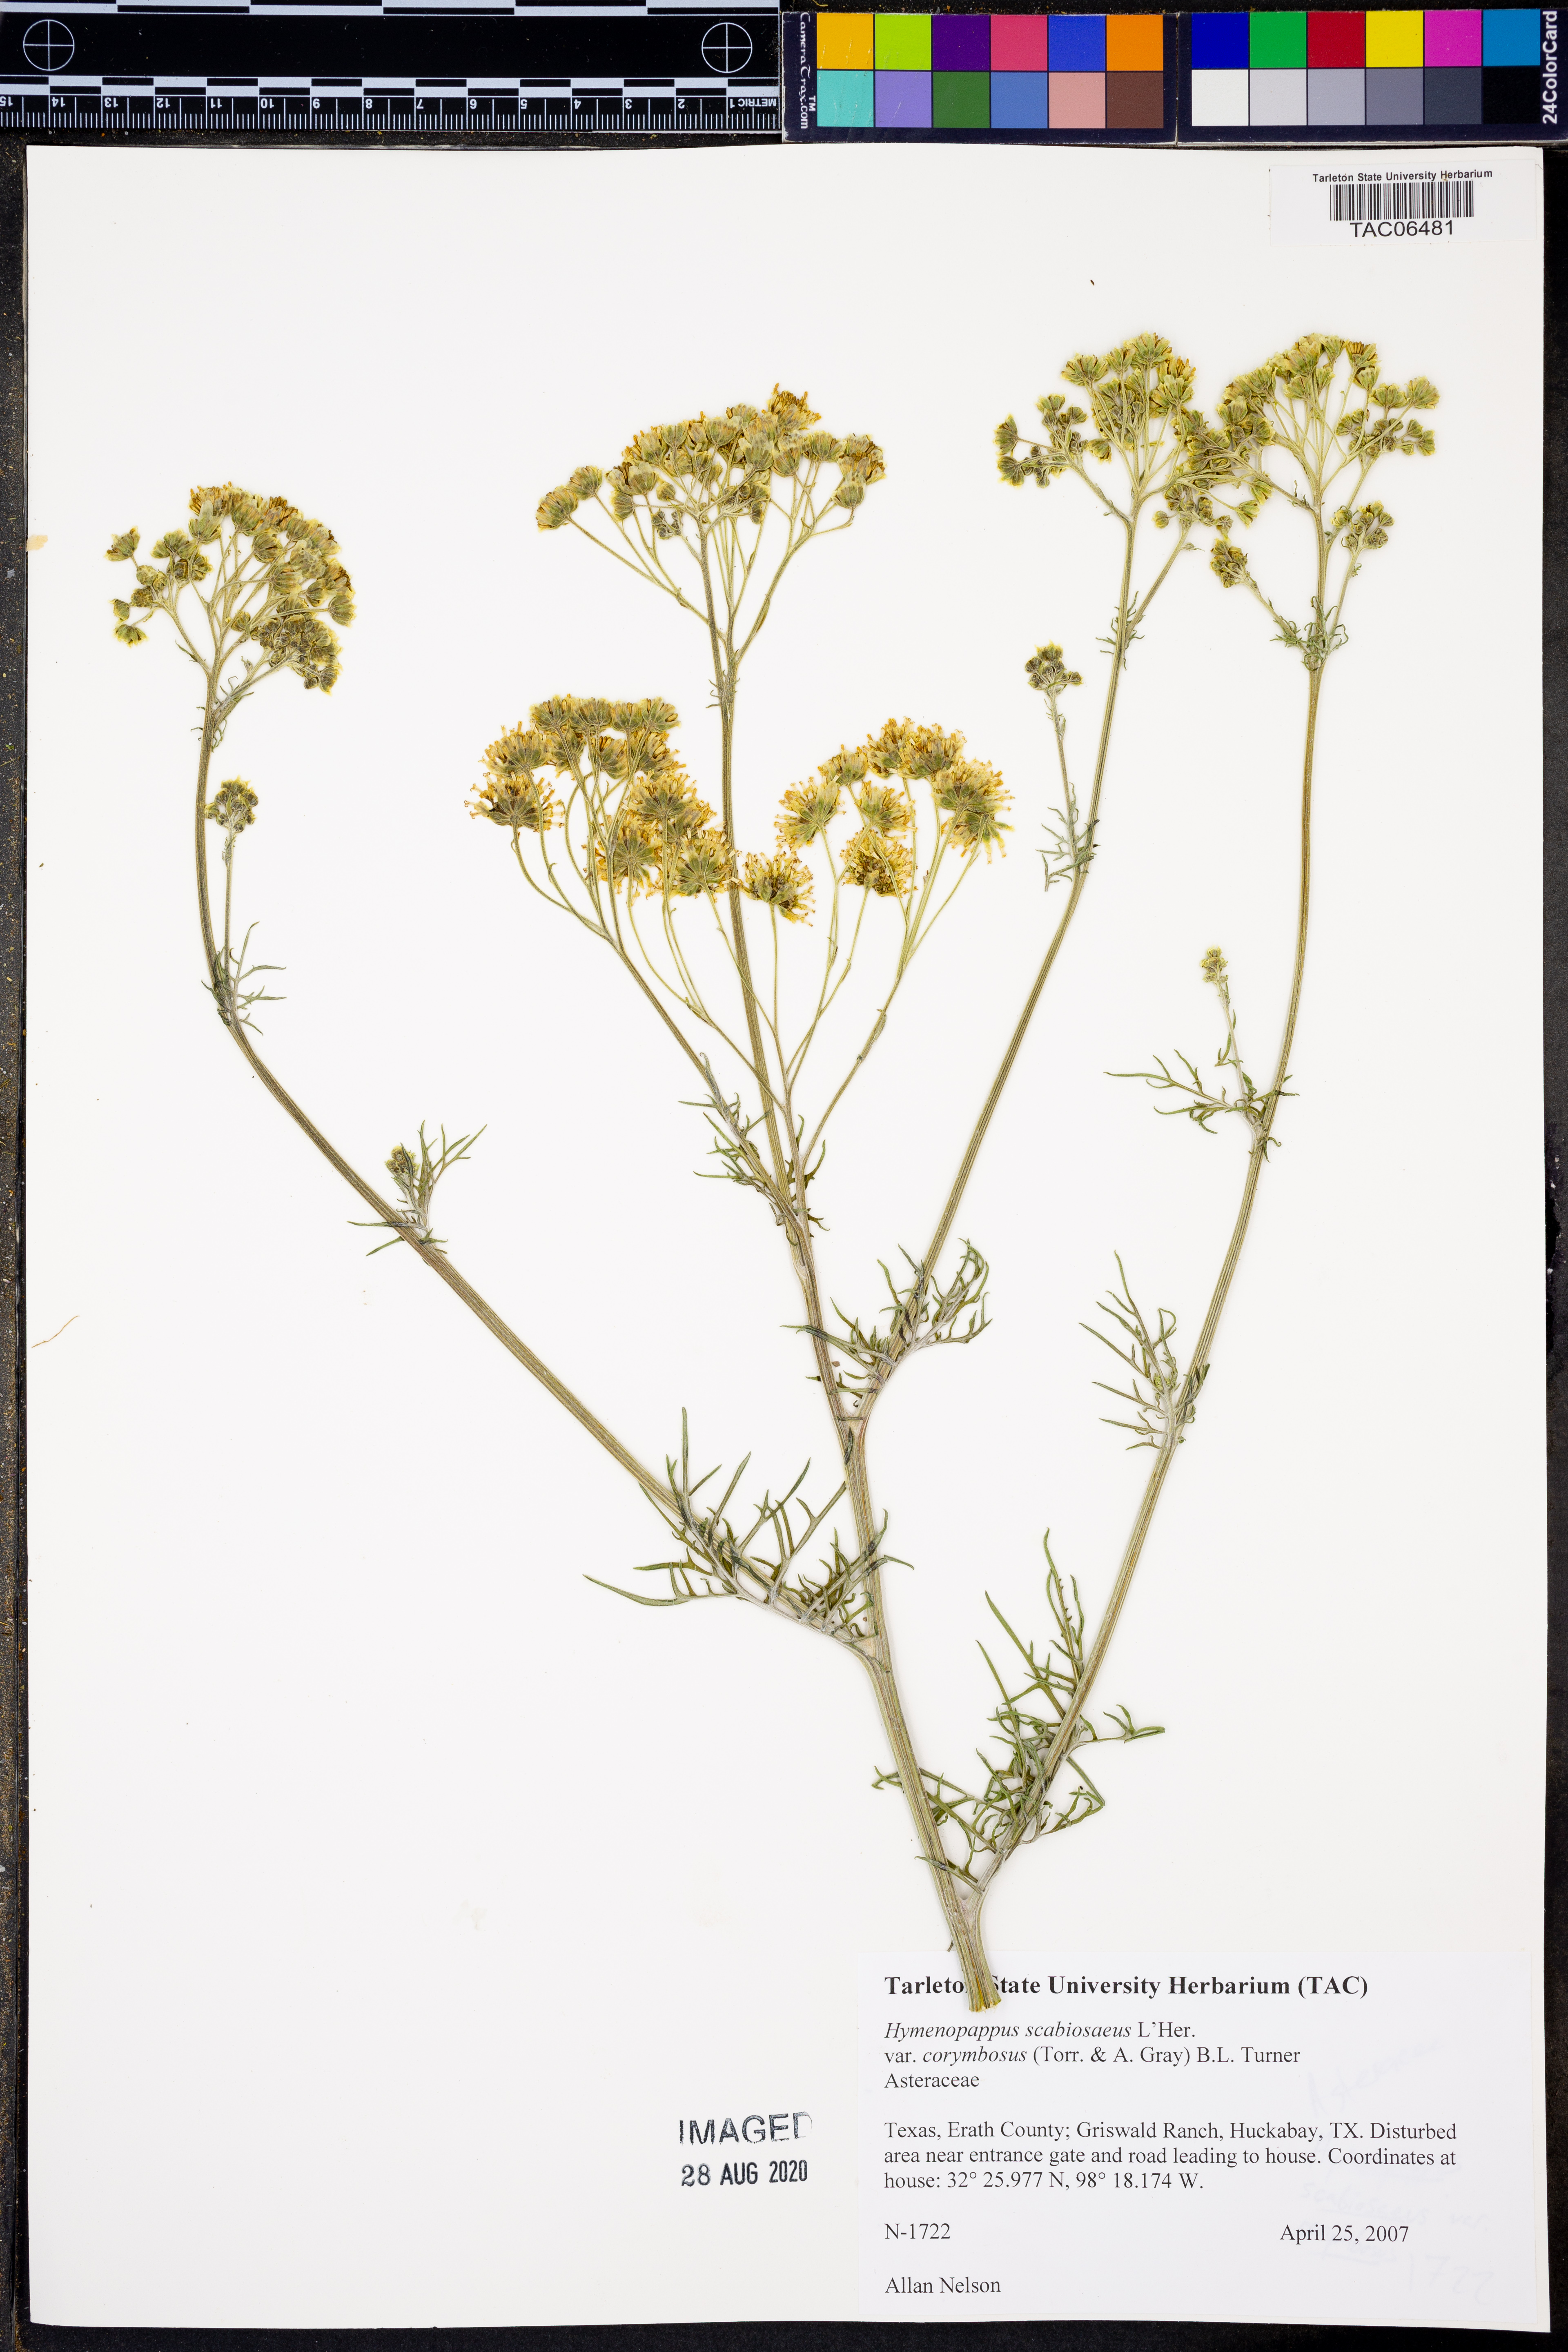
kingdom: Plantae
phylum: Tracheophyta
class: Magnoliopsida
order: Asterales
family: Asteraceae
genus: Hymenopappus
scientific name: Hymenopappus scabiosaeus
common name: Carolina woollywhite
